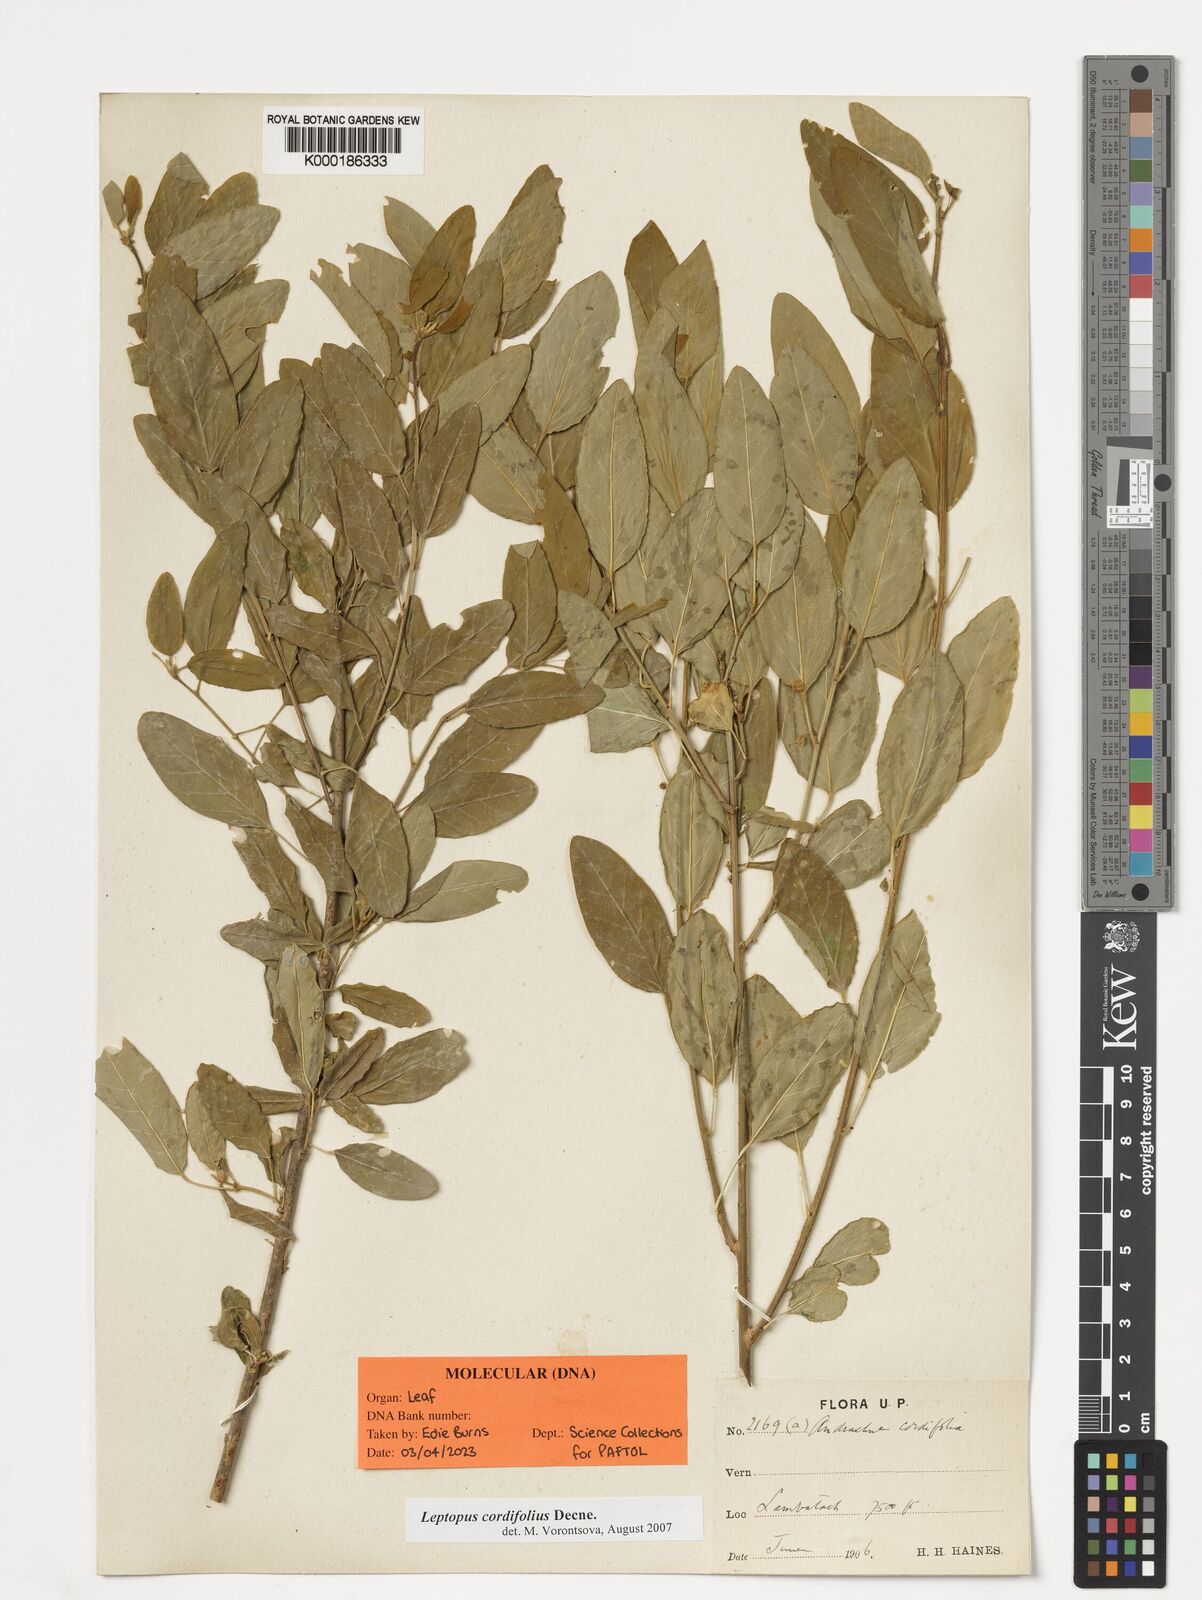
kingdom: Plantae
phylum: Tracheophyta
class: Magnoliopsida
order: Malpighiales
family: Phyllanthaceae
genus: Leptopus
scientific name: Leptopus cordifolius
